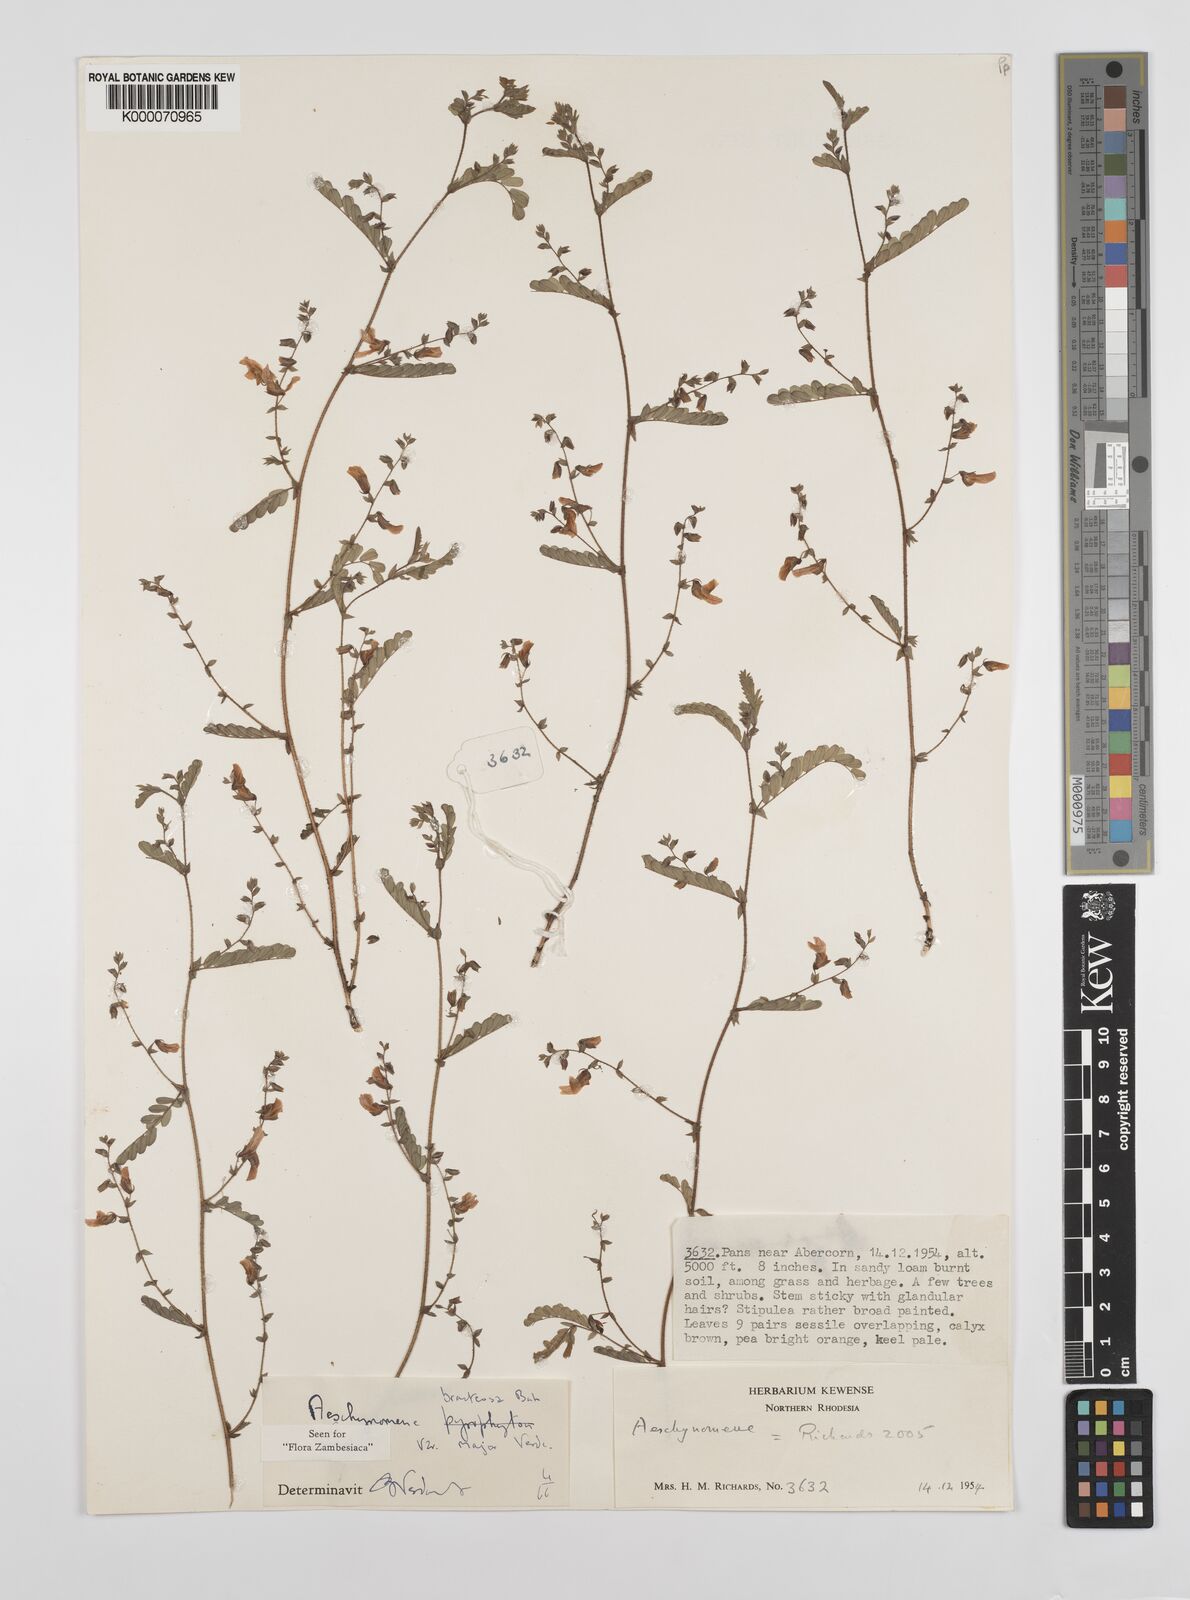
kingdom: Plantae
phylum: Tracheophyta
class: Magnoliopsida
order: Fabales
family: Fabaceae
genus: Aeschynomene
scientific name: Aeschynomene bracteosa
